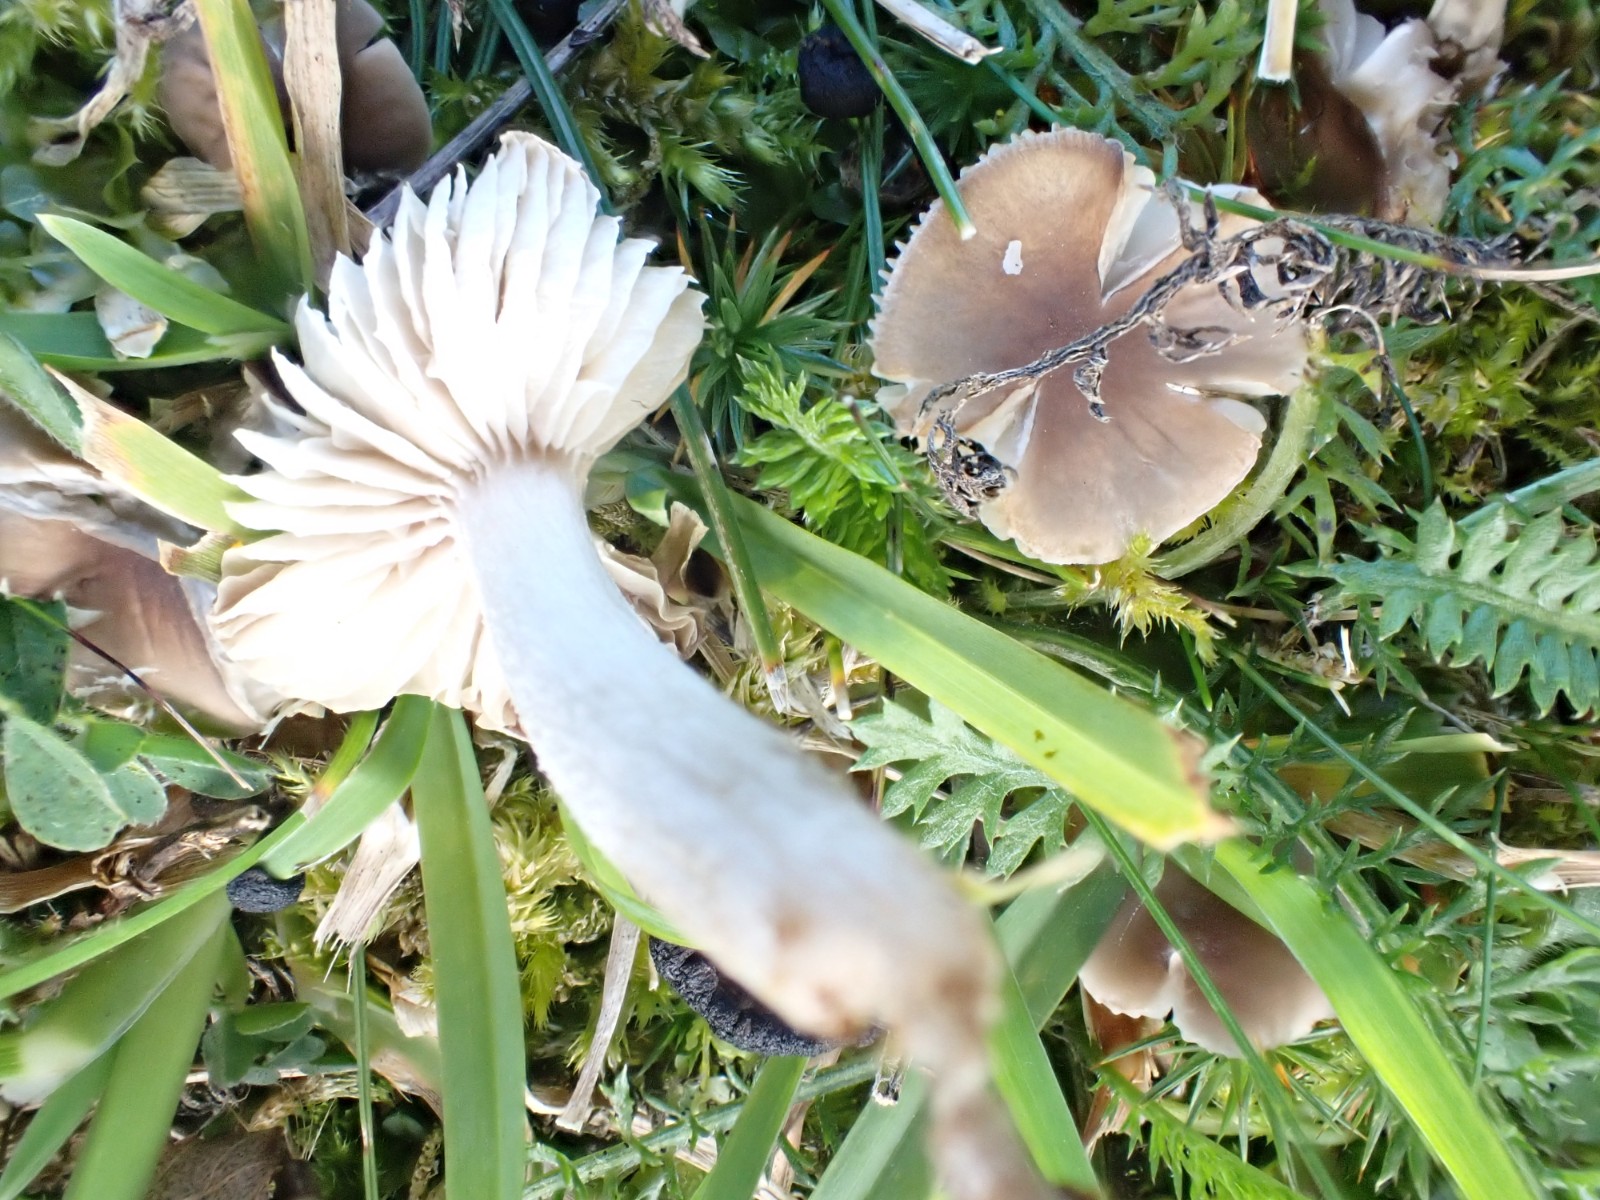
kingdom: Fungi
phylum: Basidiomycota
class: Agaricomycetes
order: Agaricales
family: Tricholomataceae
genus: Dermoloma
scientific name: Dermoloma cuneifolium
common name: eng-nonnehat
